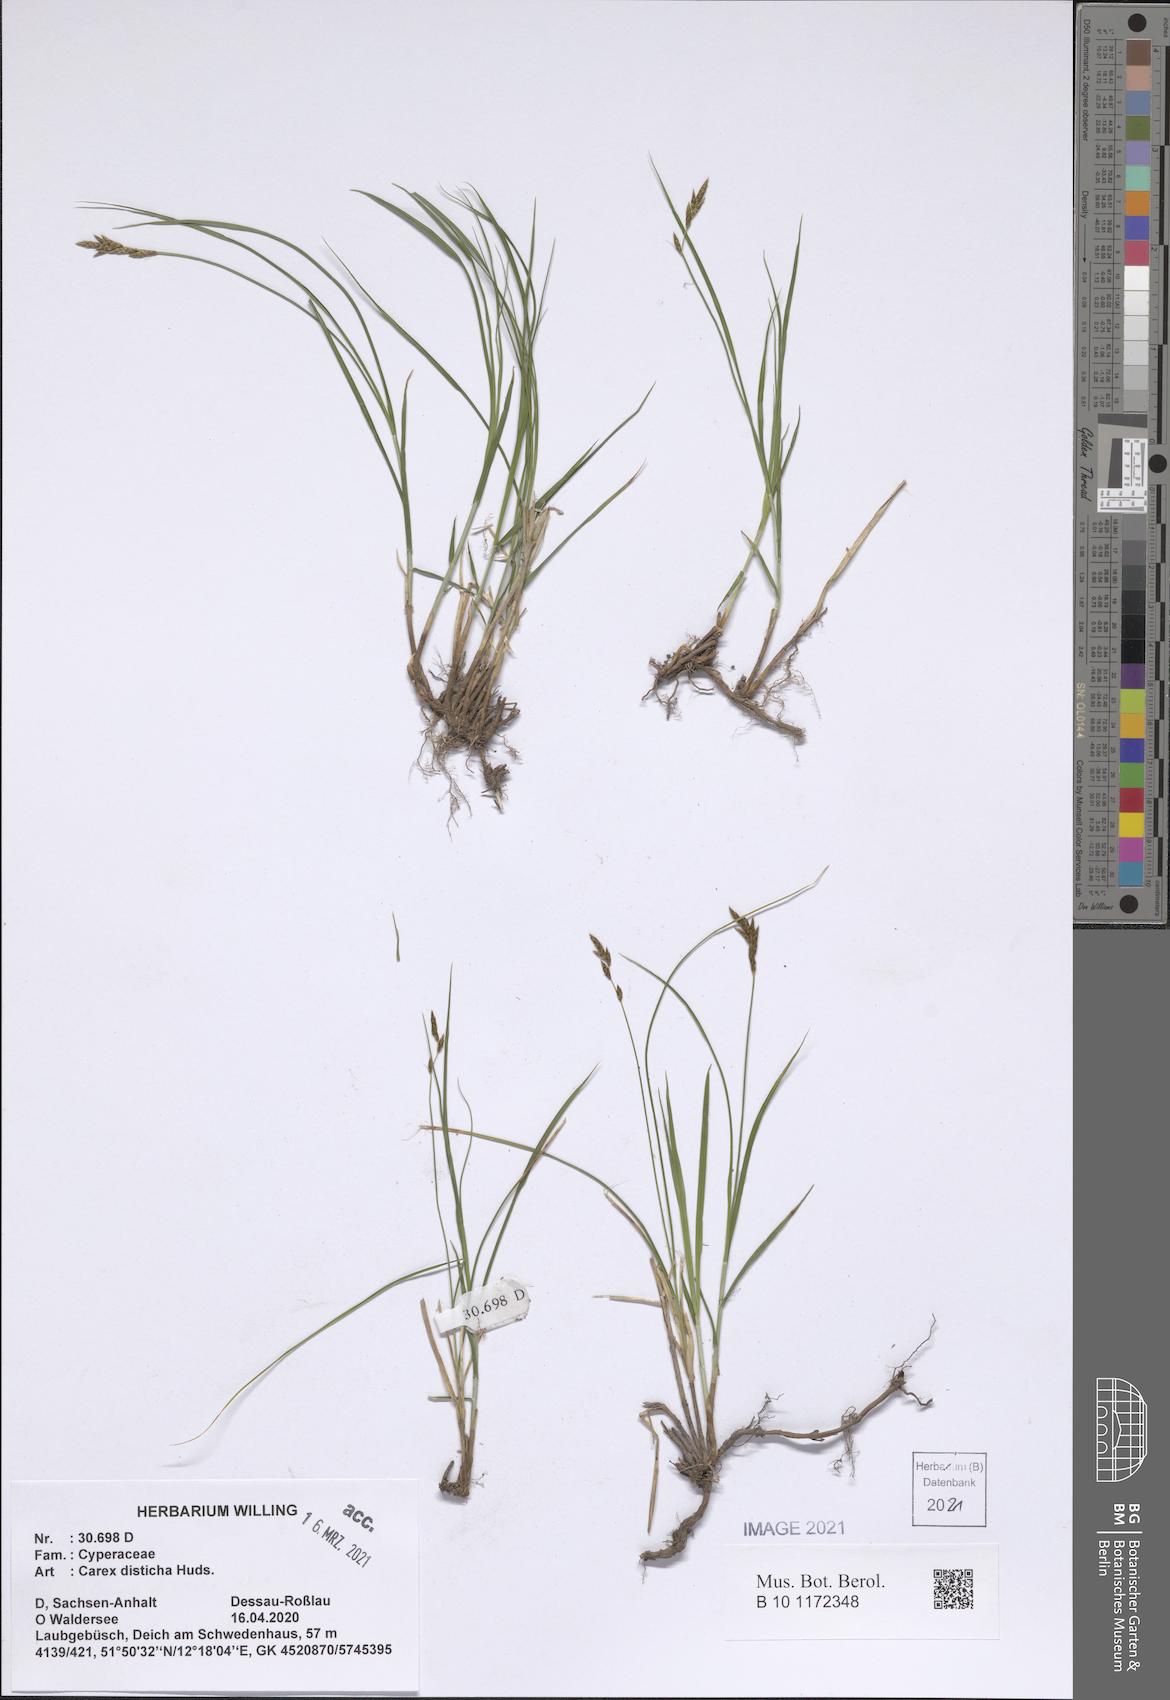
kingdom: Plantae
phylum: Tracheophyta
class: Liliopsida
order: Poales
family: Cyperaceae
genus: Carex
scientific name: Carex disticha
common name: Brown sedge
